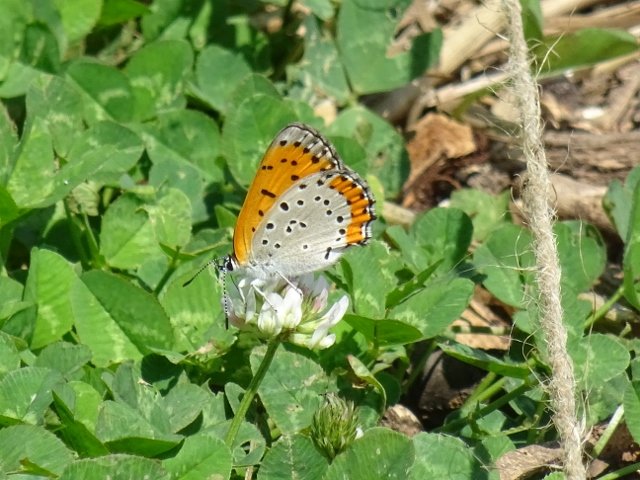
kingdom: Animalia
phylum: Arthropoda
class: Insecta
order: Lepidoptera
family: Sesiidae
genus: Sesia
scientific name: Sesia Lycaena hyllus
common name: Bronze Copper
